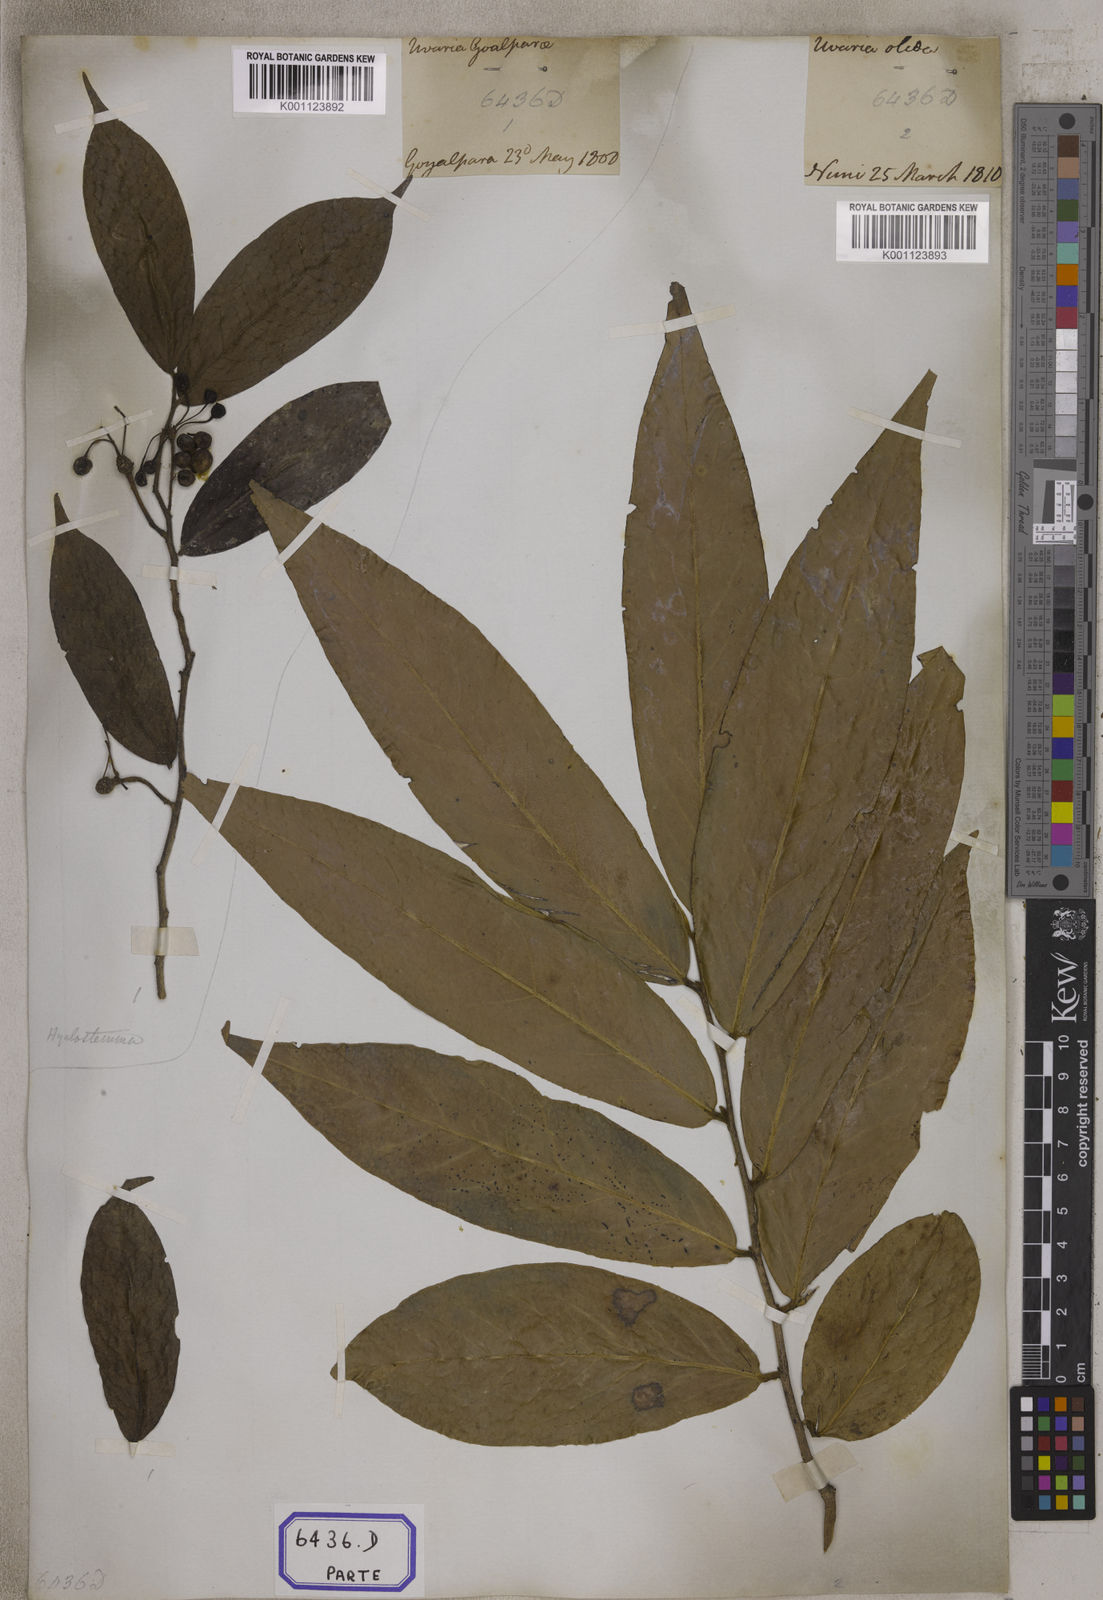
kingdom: Plantae
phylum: Tracheophyta
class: Magnoliopsida
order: Magnoliales
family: Annonaceae
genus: Hubera
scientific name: Hubera cerasoides
